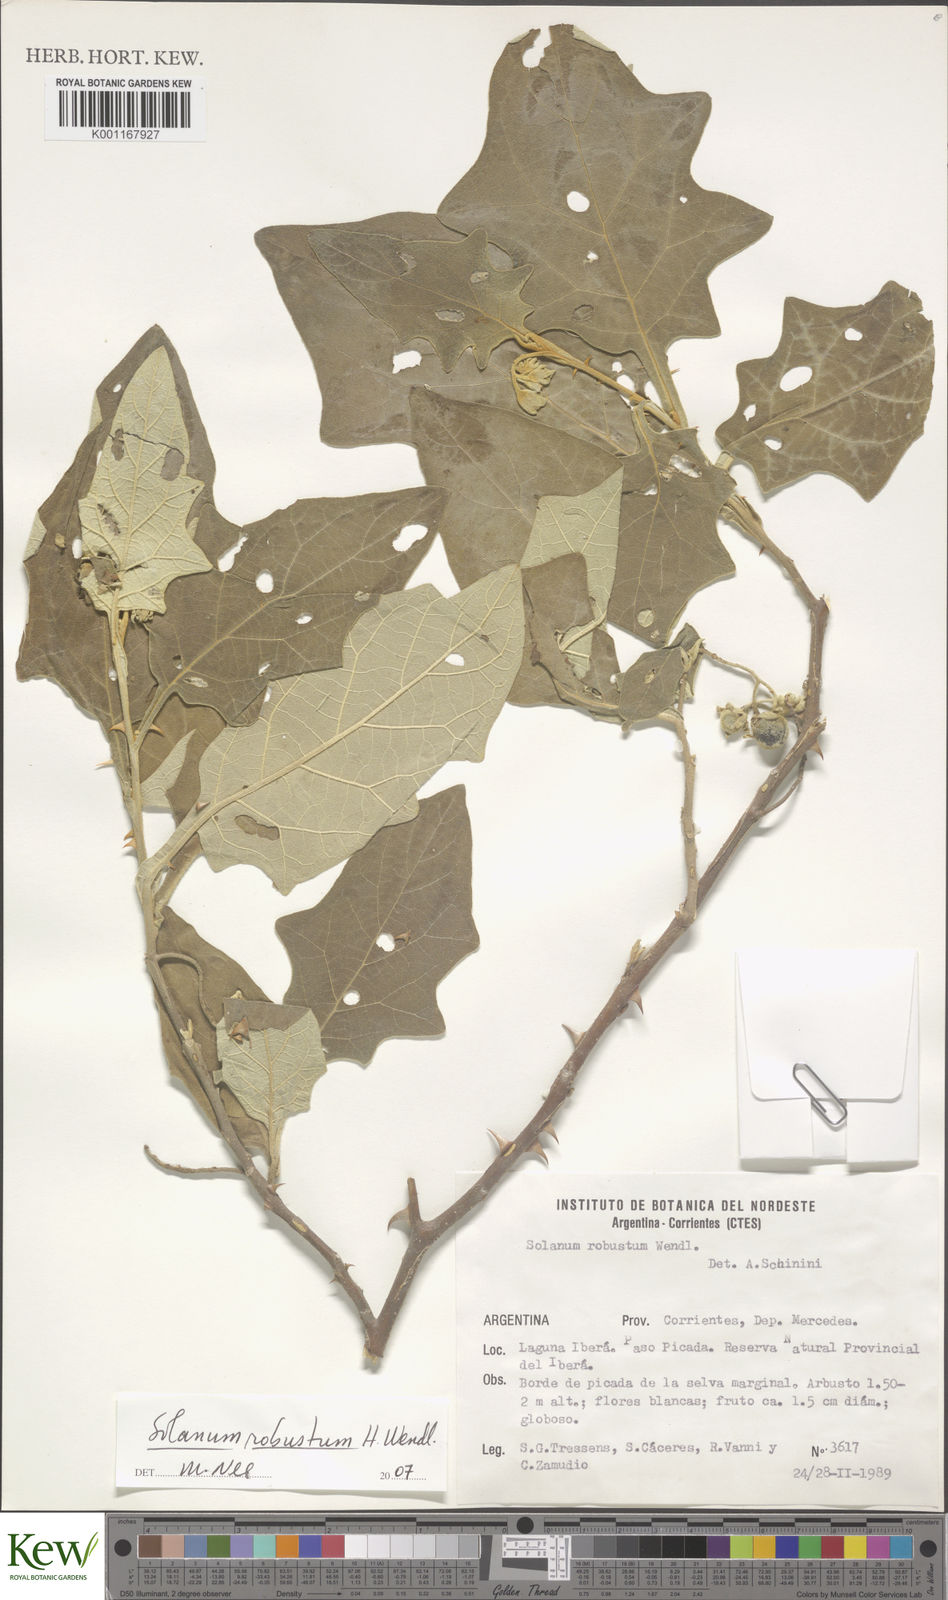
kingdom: Plantae
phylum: Tracheophyta
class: Magnoliopsida
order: Solanales
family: Solanaceae
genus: Solanum
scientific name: Solanum robustum
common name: Shrubby nightshade
